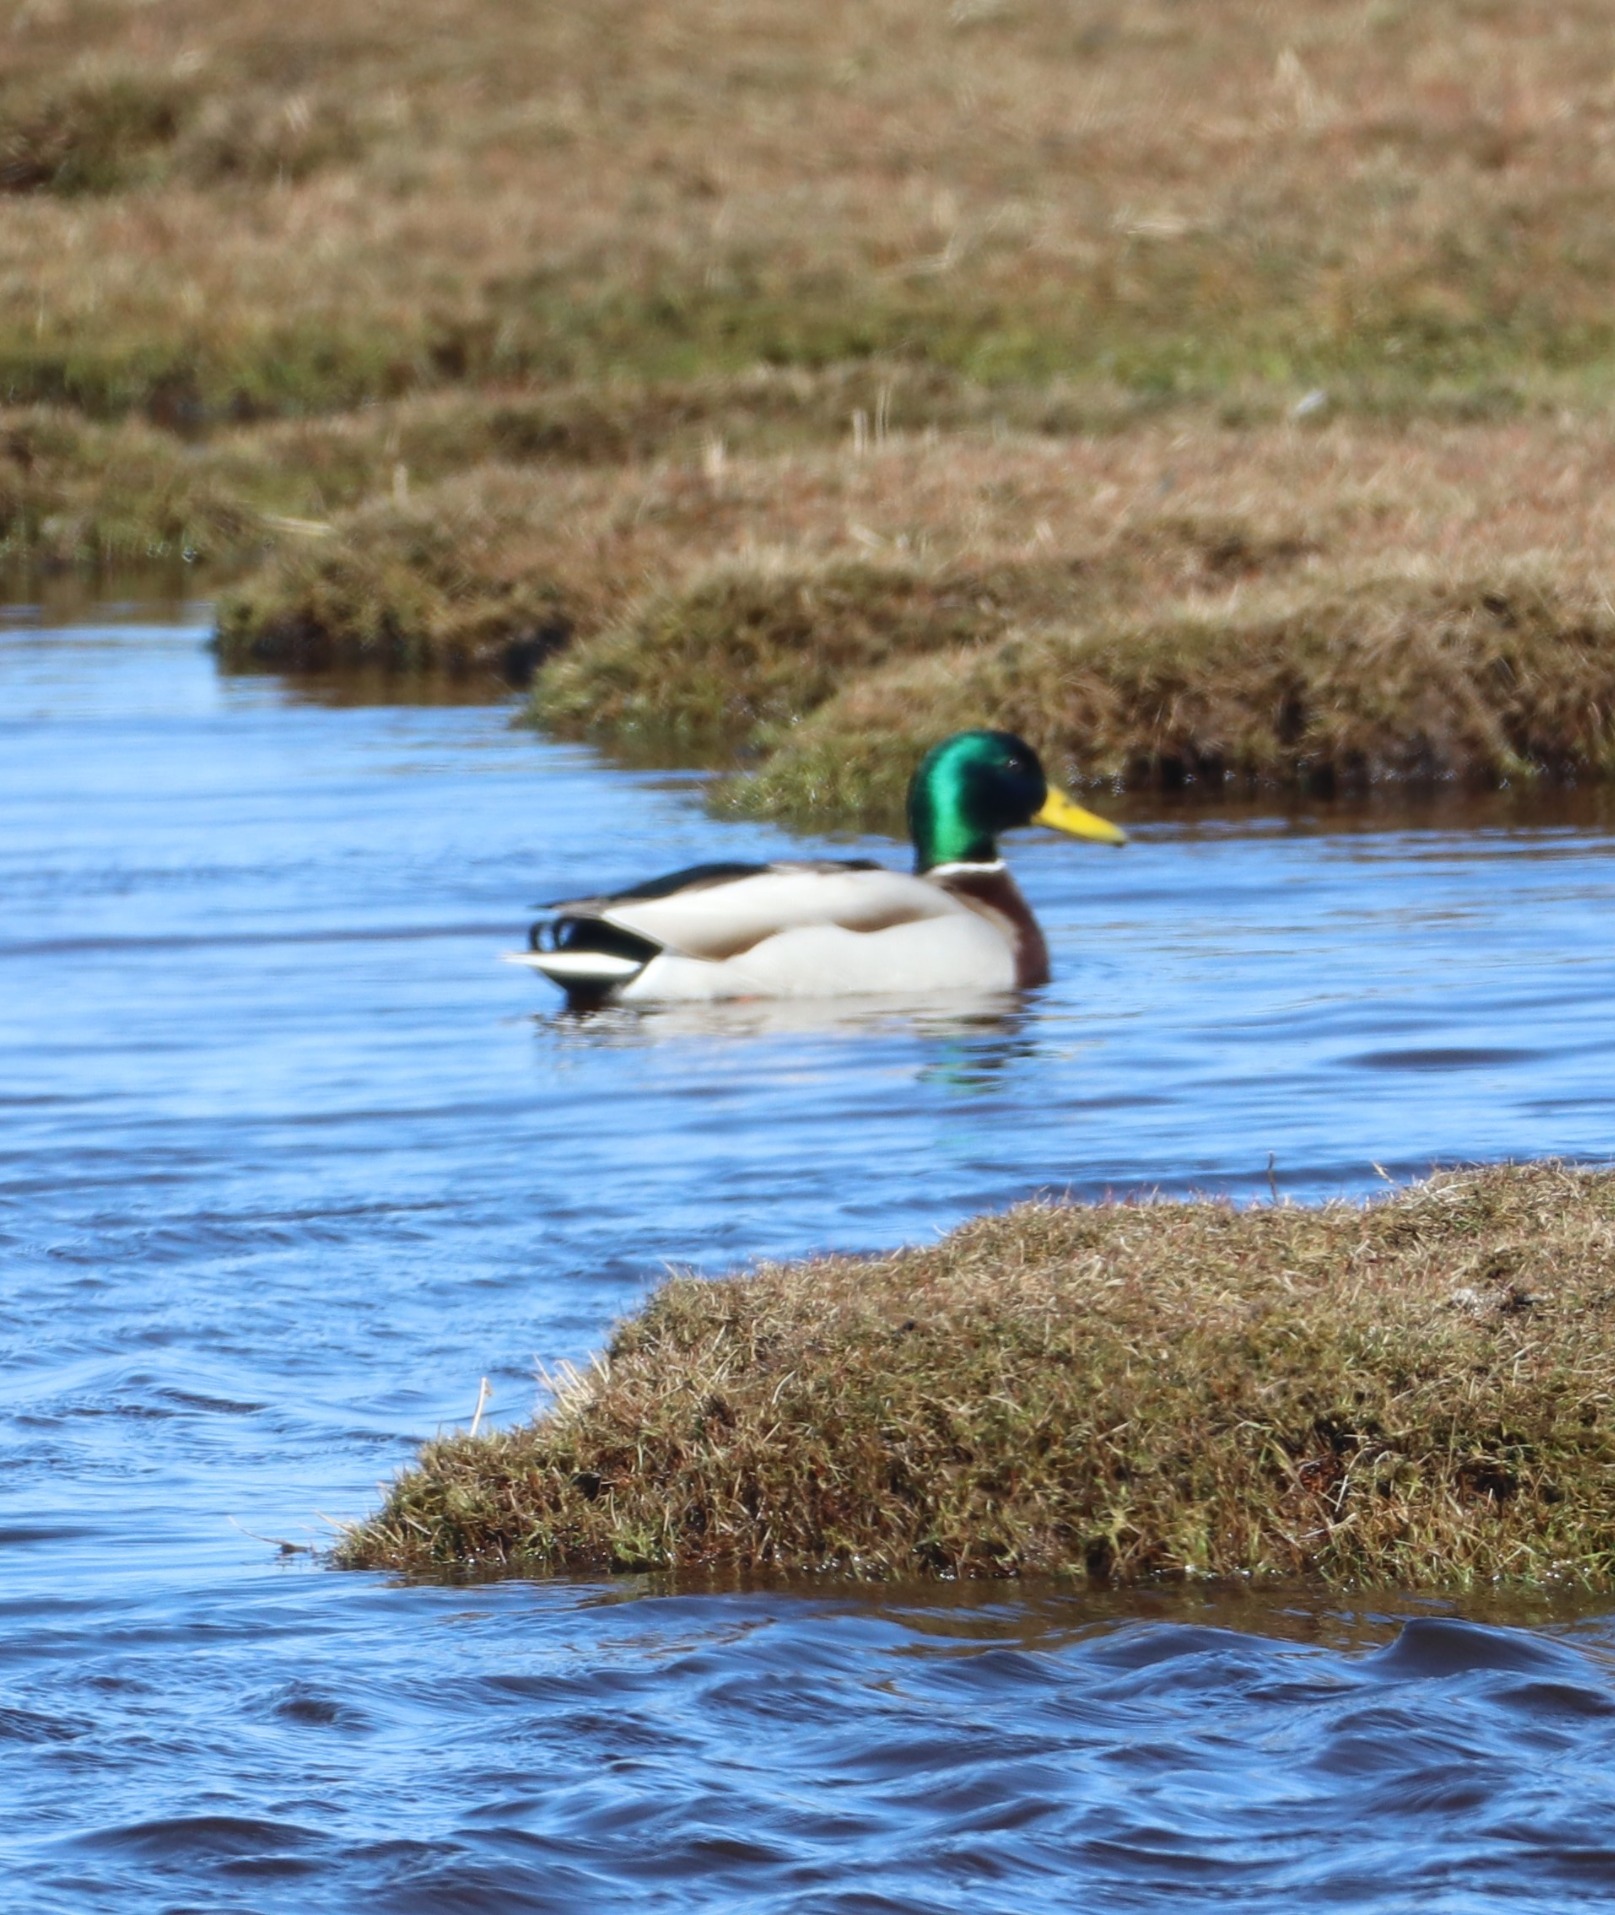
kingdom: Animalia
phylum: Chordata
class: Aves
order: Anseriformes
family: Anatidae
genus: Anas
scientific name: Anas platyrhynchos
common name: Gråand
